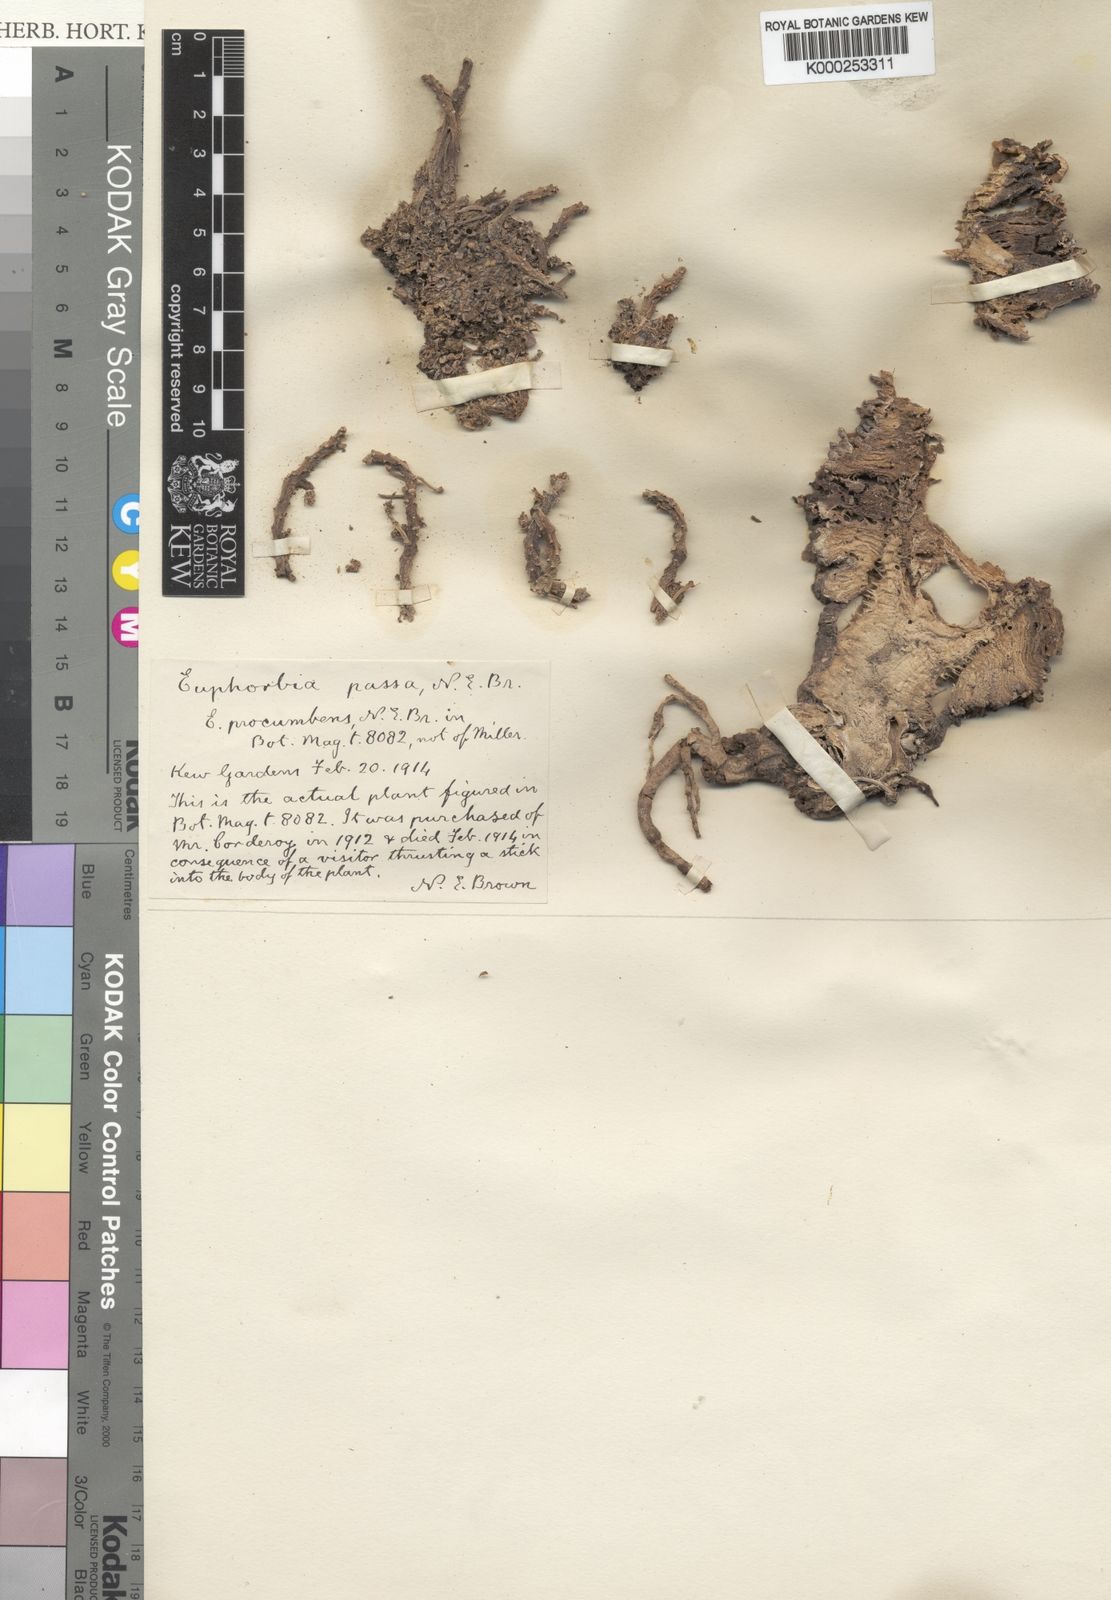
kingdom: Plantae
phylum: Tracheophyta
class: Magnoliopsida
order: Malpighiales
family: Euphorbiaceae
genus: Euphorbia
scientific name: Euphorbia flanaganii
